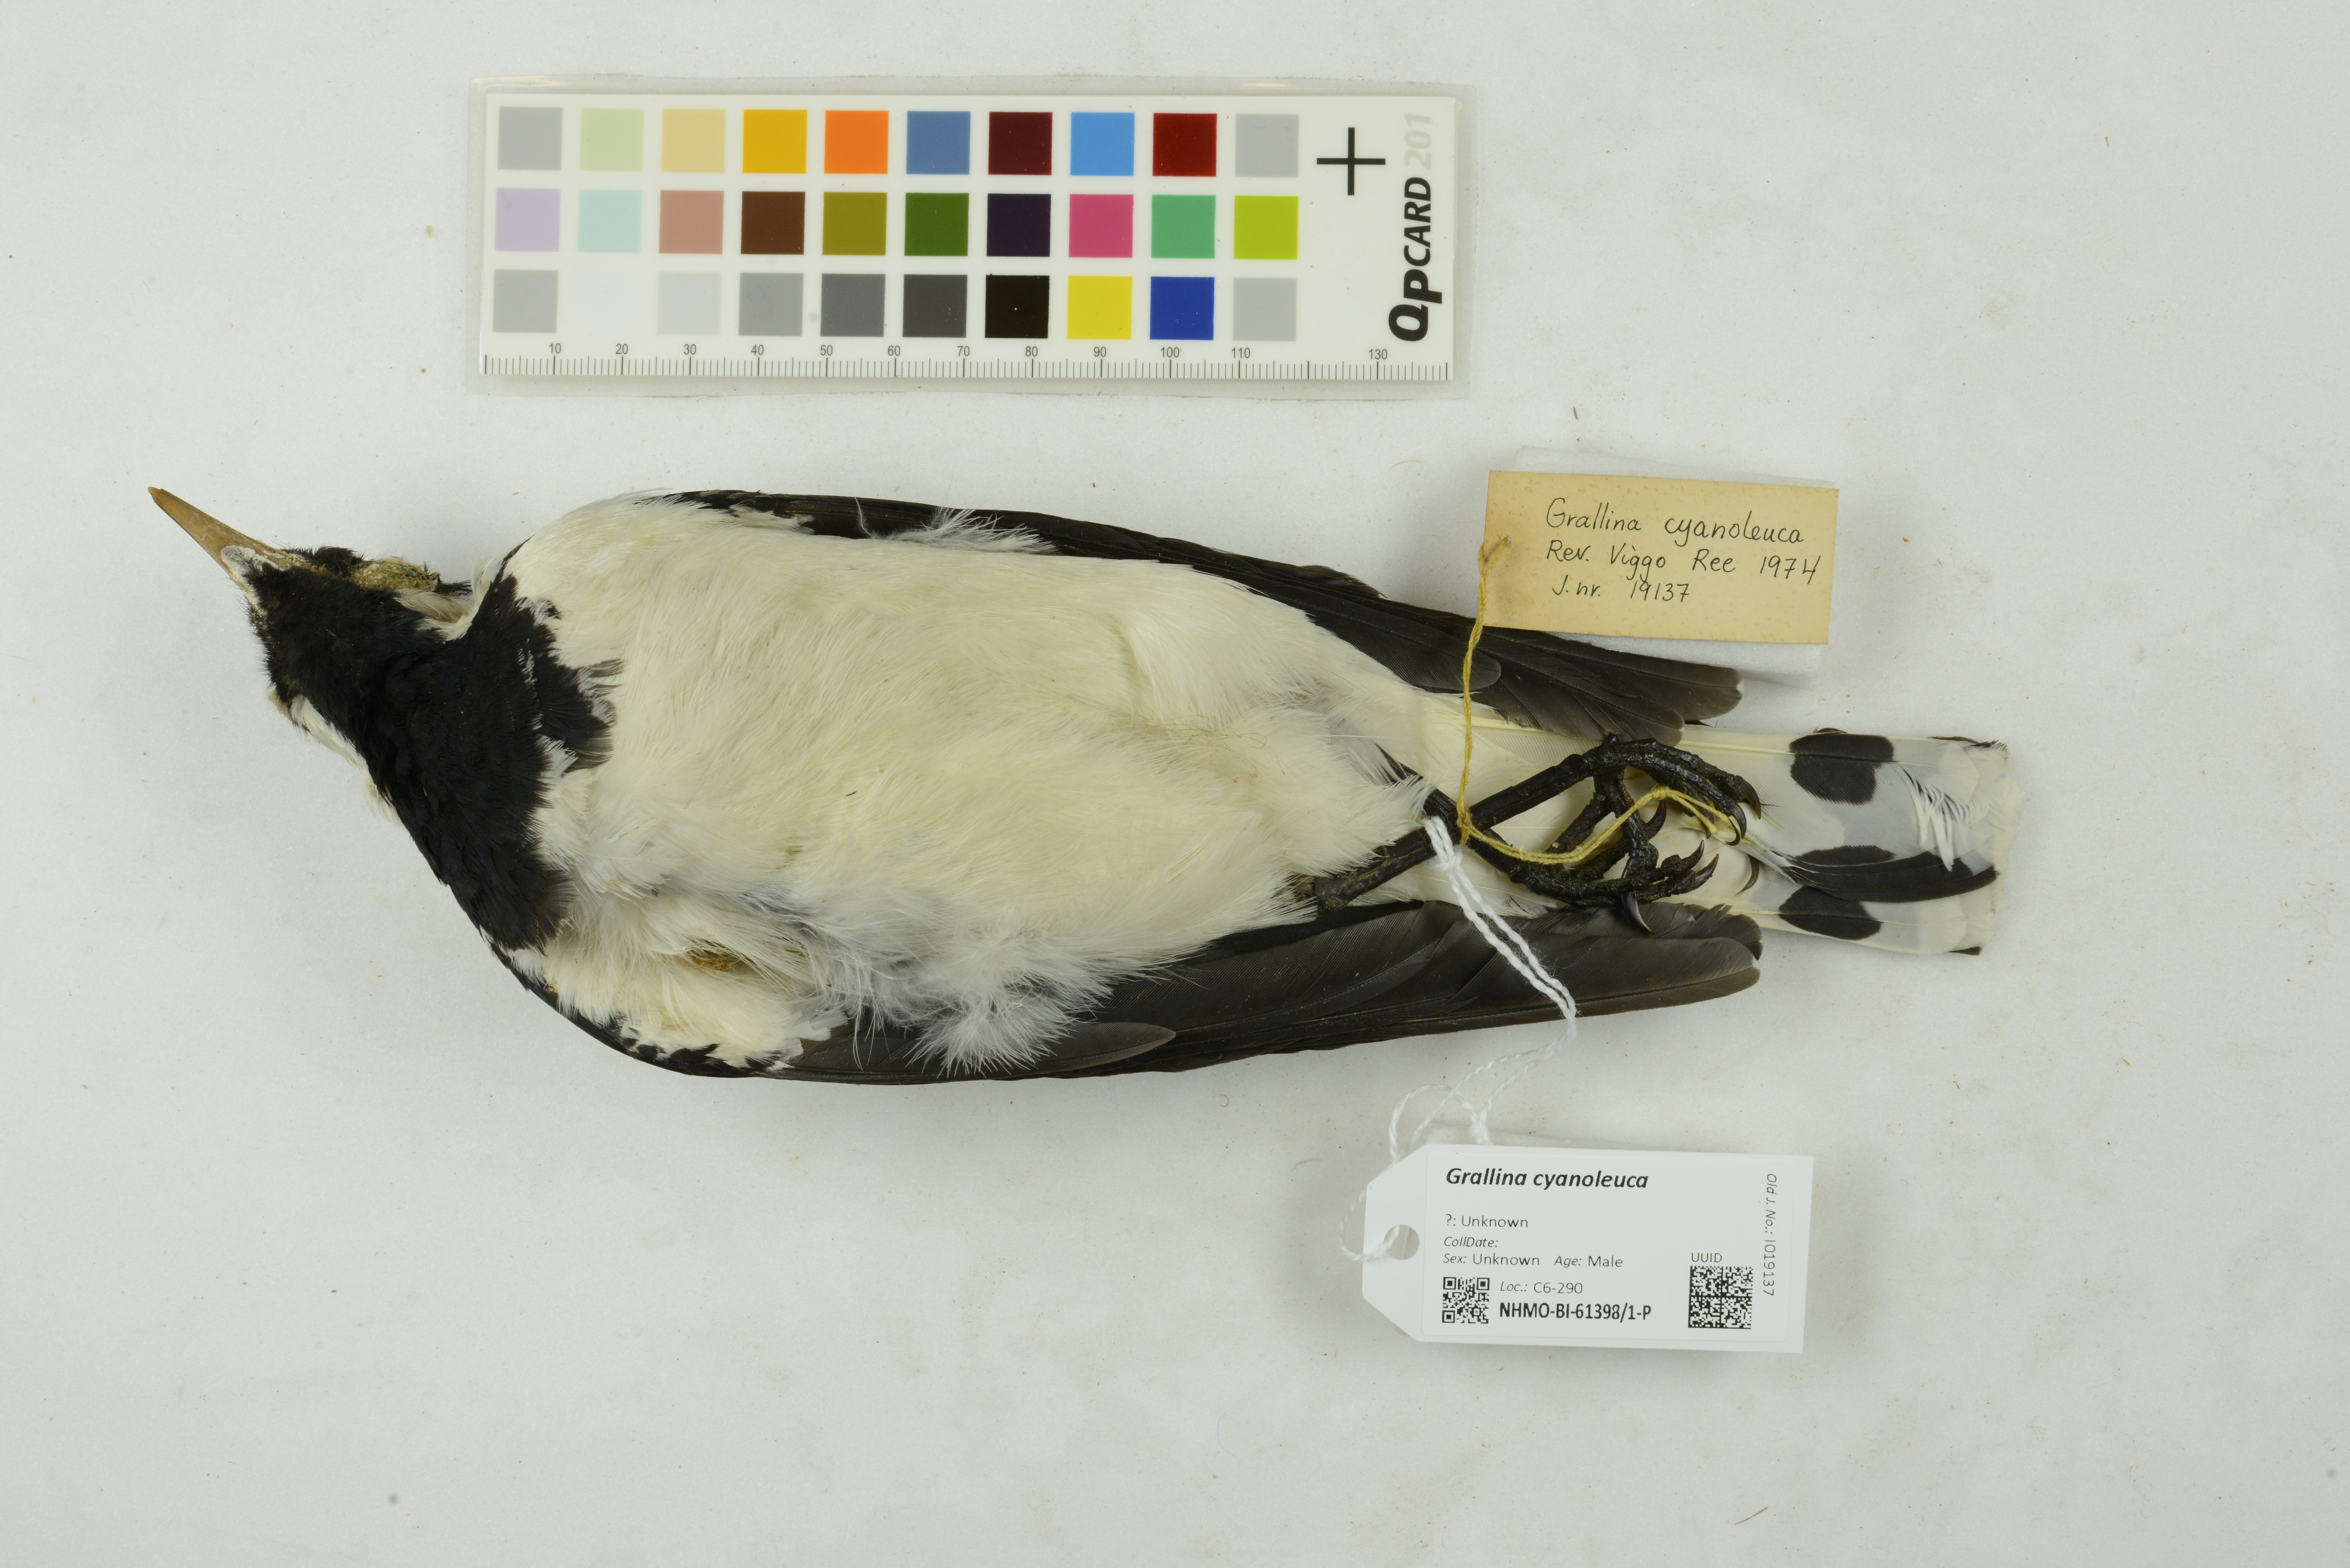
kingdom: Animalia
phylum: Chordata
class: Aves
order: Passeriformes
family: Monarchidae
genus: Grallina
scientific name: Grallina cyanoleuca
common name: Magpie-lark
